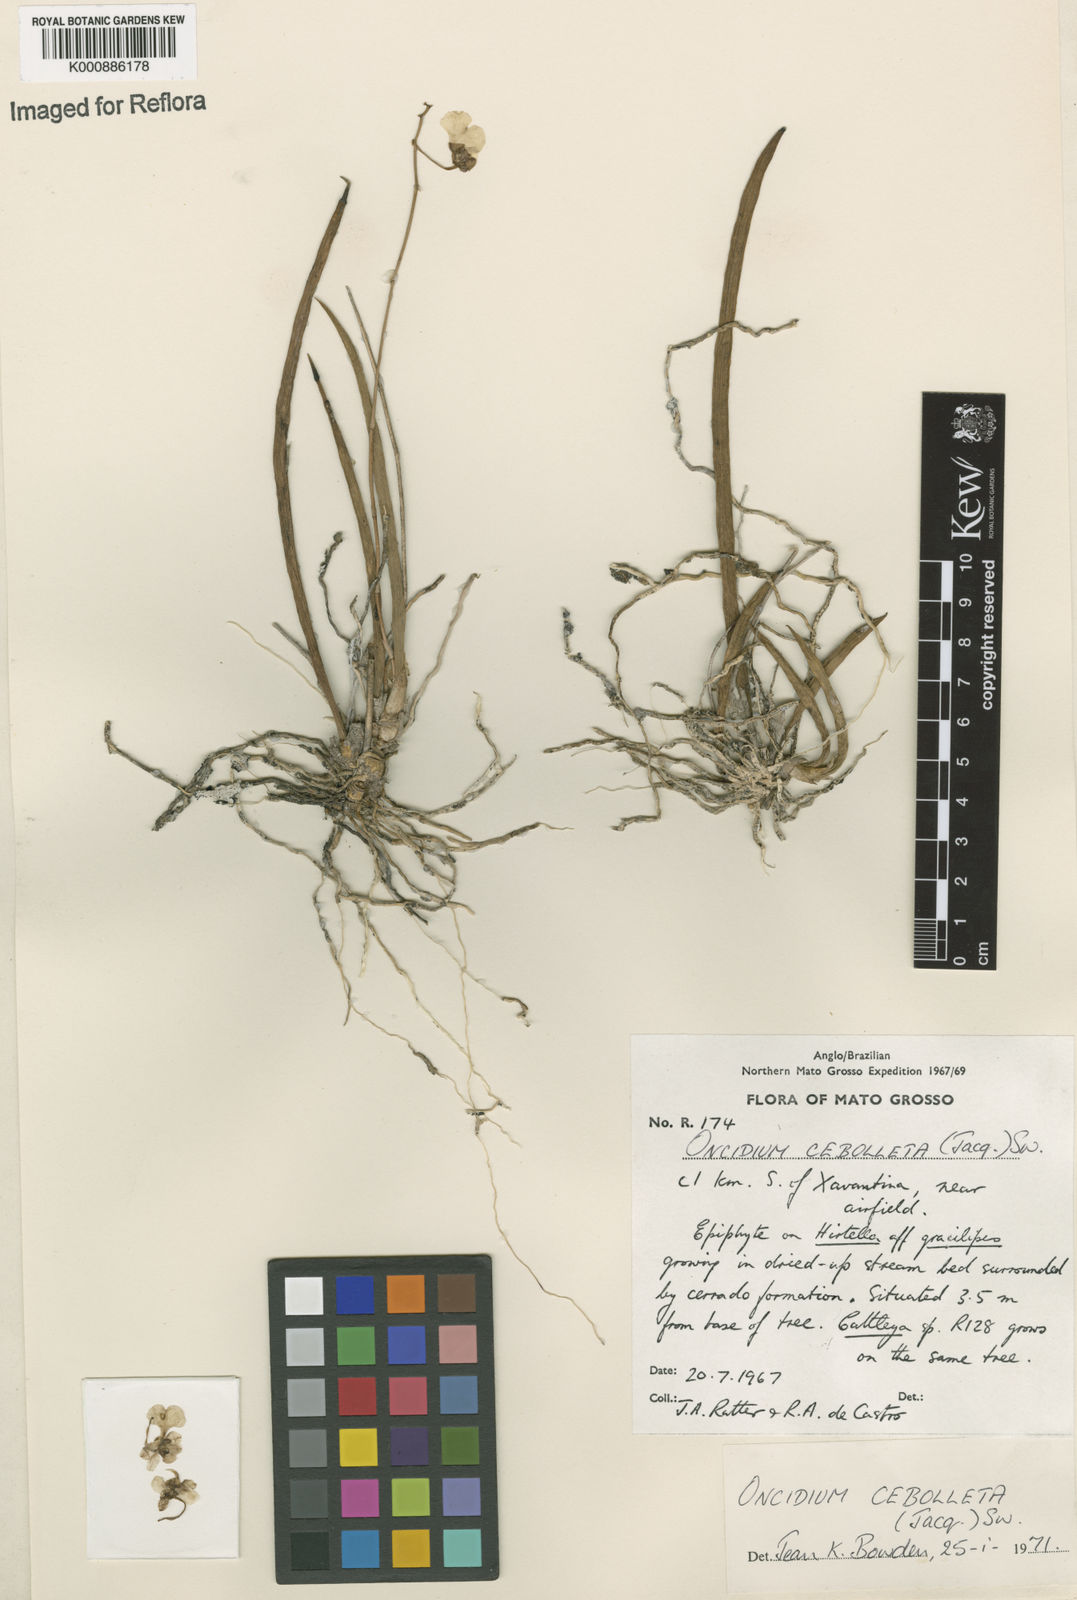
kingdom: Plantae
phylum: Tracheophyta
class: Liliopsida
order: Asparagales
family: Orchidaceae
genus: Trichocentrum
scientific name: Trichocentrum cebolleta
